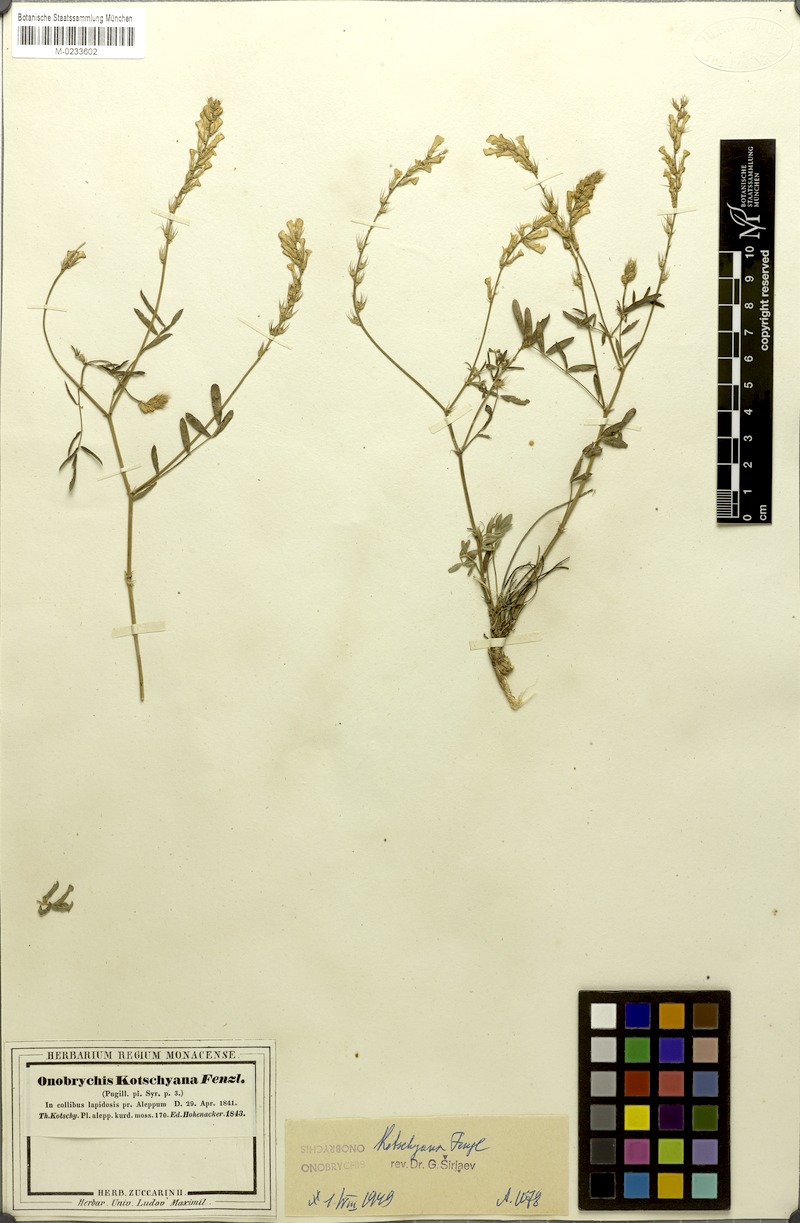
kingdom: Plantae
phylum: Tracheophyta
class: Magnoliopsida
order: Fabales
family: Fabaceae
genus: Onobrychis
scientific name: Onobrychis kotschyana
